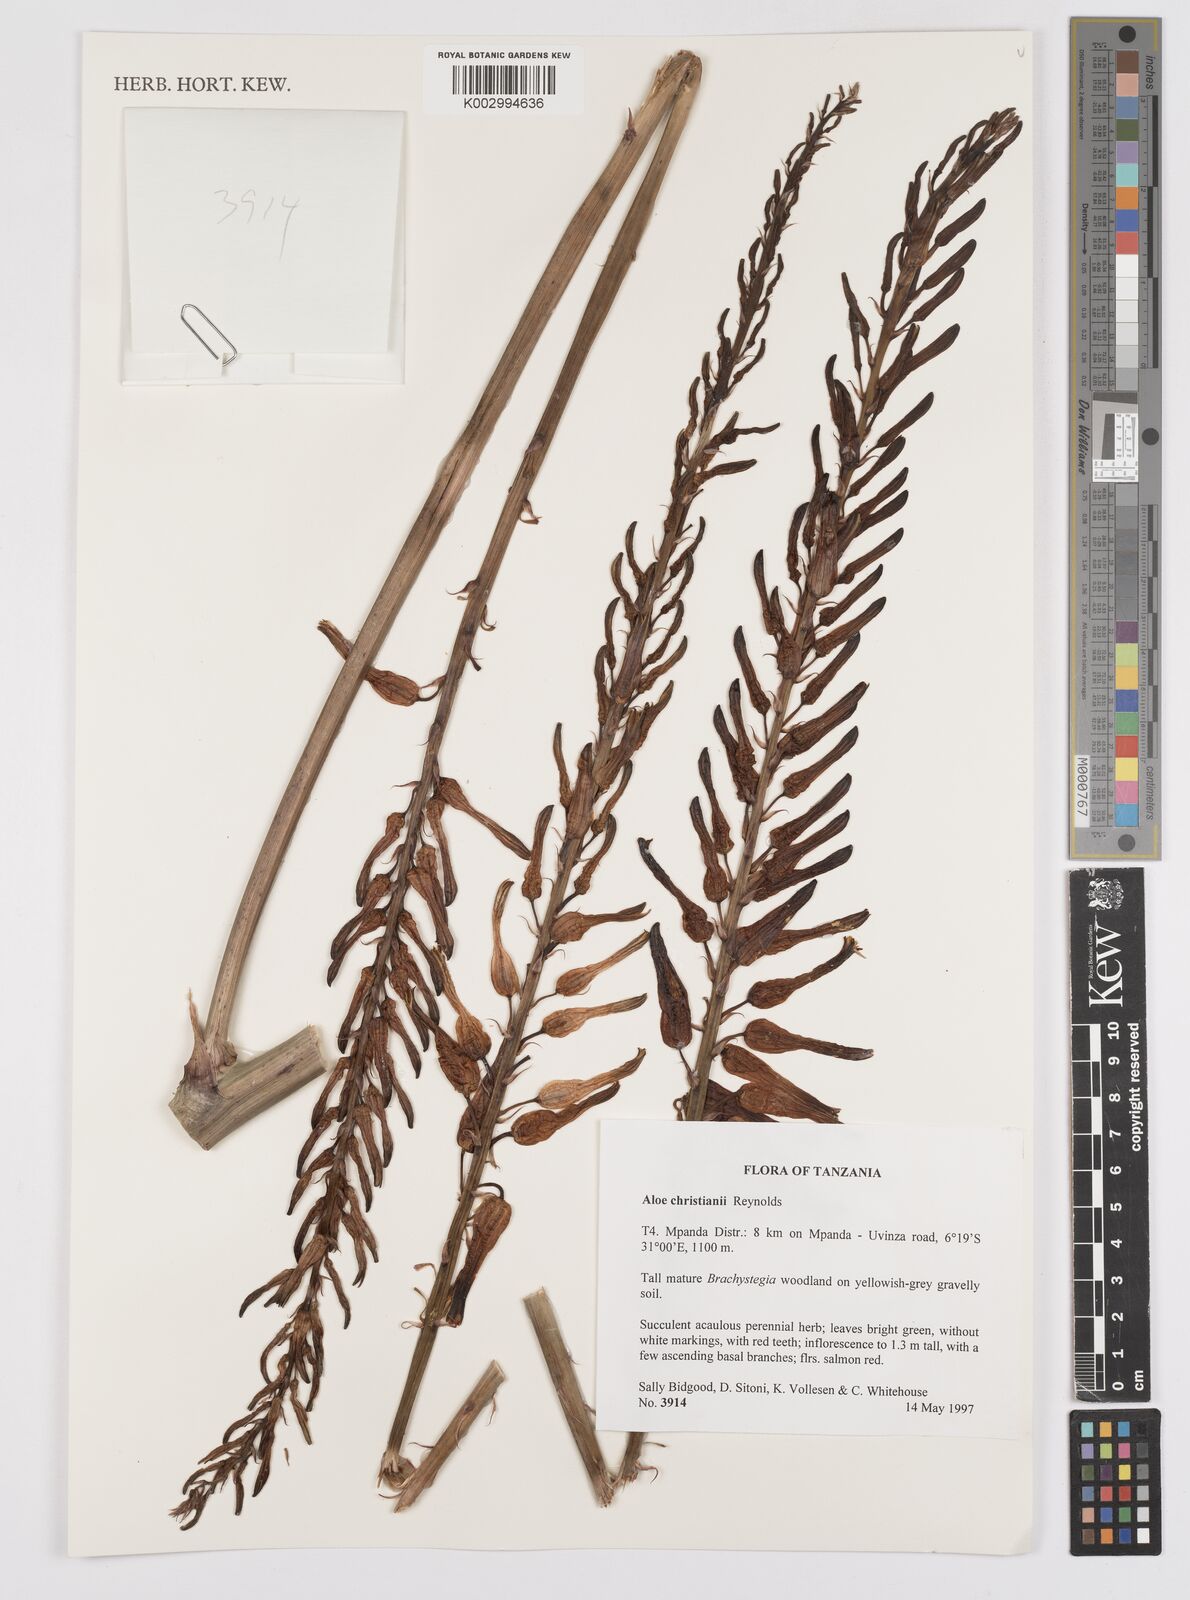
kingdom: Plantae
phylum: Tracheophyta
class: Liliopsida
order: Asparagales
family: Asphodelaceae
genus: Aloe
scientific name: Aloe christianii
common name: Basil christian's aloe
